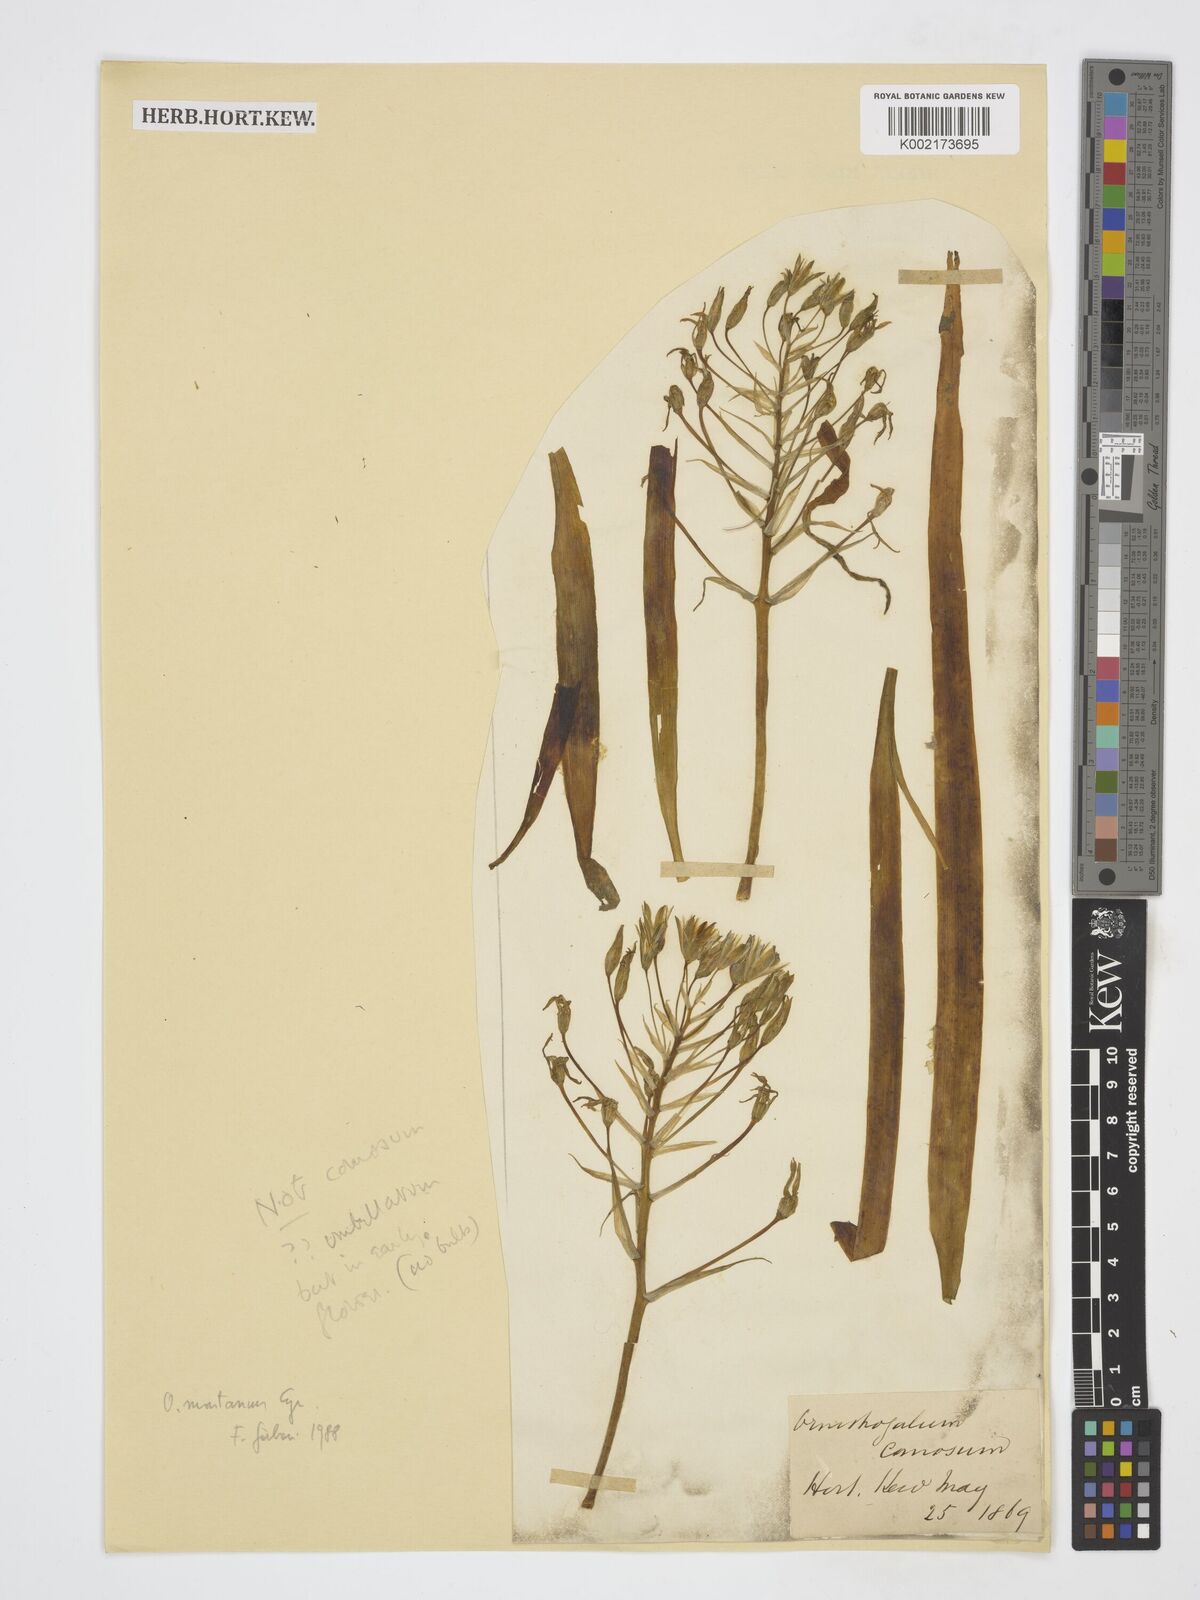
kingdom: Plantae
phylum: Tracheophyta
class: Liliopsida
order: Asparagales
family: Asparagaceae
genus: Ornithogalum
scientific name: Ornithogalum umbellatum
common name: Garden star-of-bethlehem
